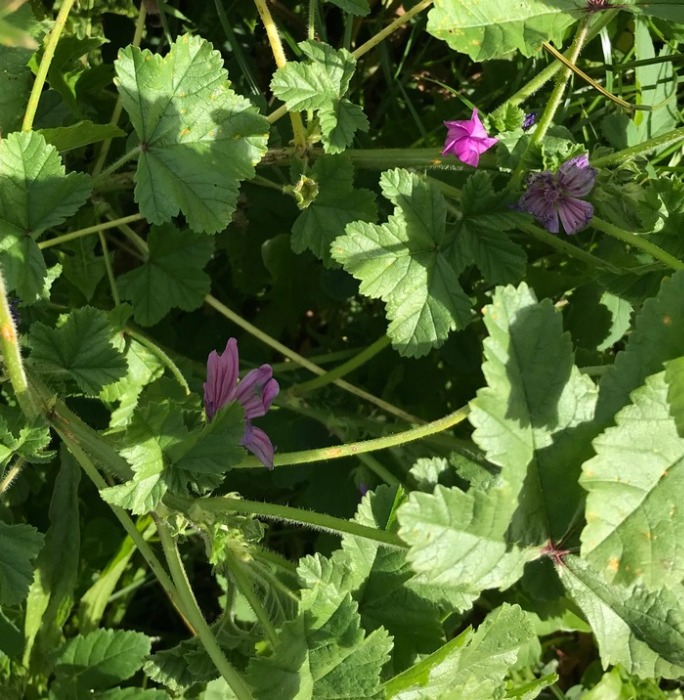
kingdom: Plantae
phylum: Tracheophyta
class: Magnoliopsida
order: Malvales
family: Malvaceae
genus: Malva
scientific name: Malva sylvestris
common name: Almindelig katost
